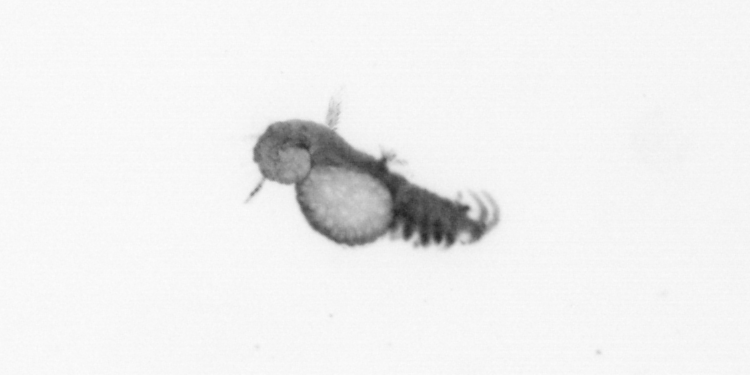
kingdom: Animalia
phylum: Annelida
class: Polychaeta
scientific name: Polychaeta
